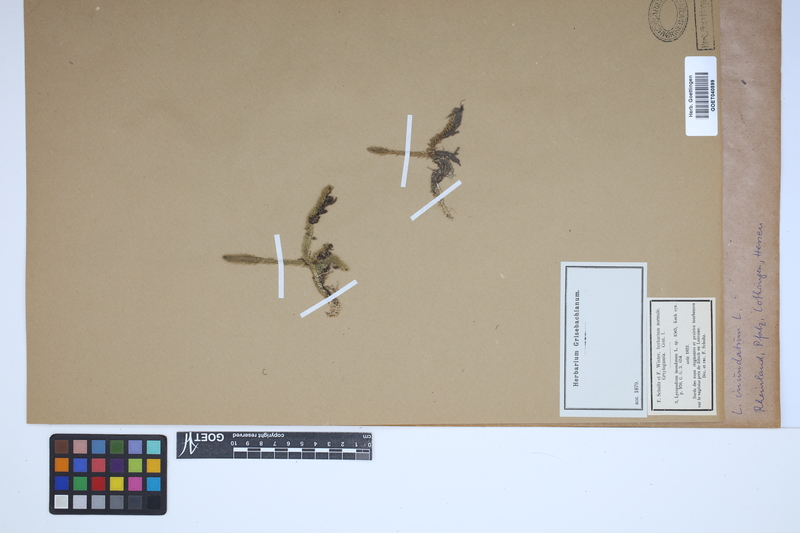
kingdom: Plantae
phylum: Tracheophyta
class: Lycopodiopsida
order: Lycopodiales
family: Lycopodiaceae
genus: Lycopodiella
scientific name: Lycopodiella inundata
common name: Marsh clubmoss
